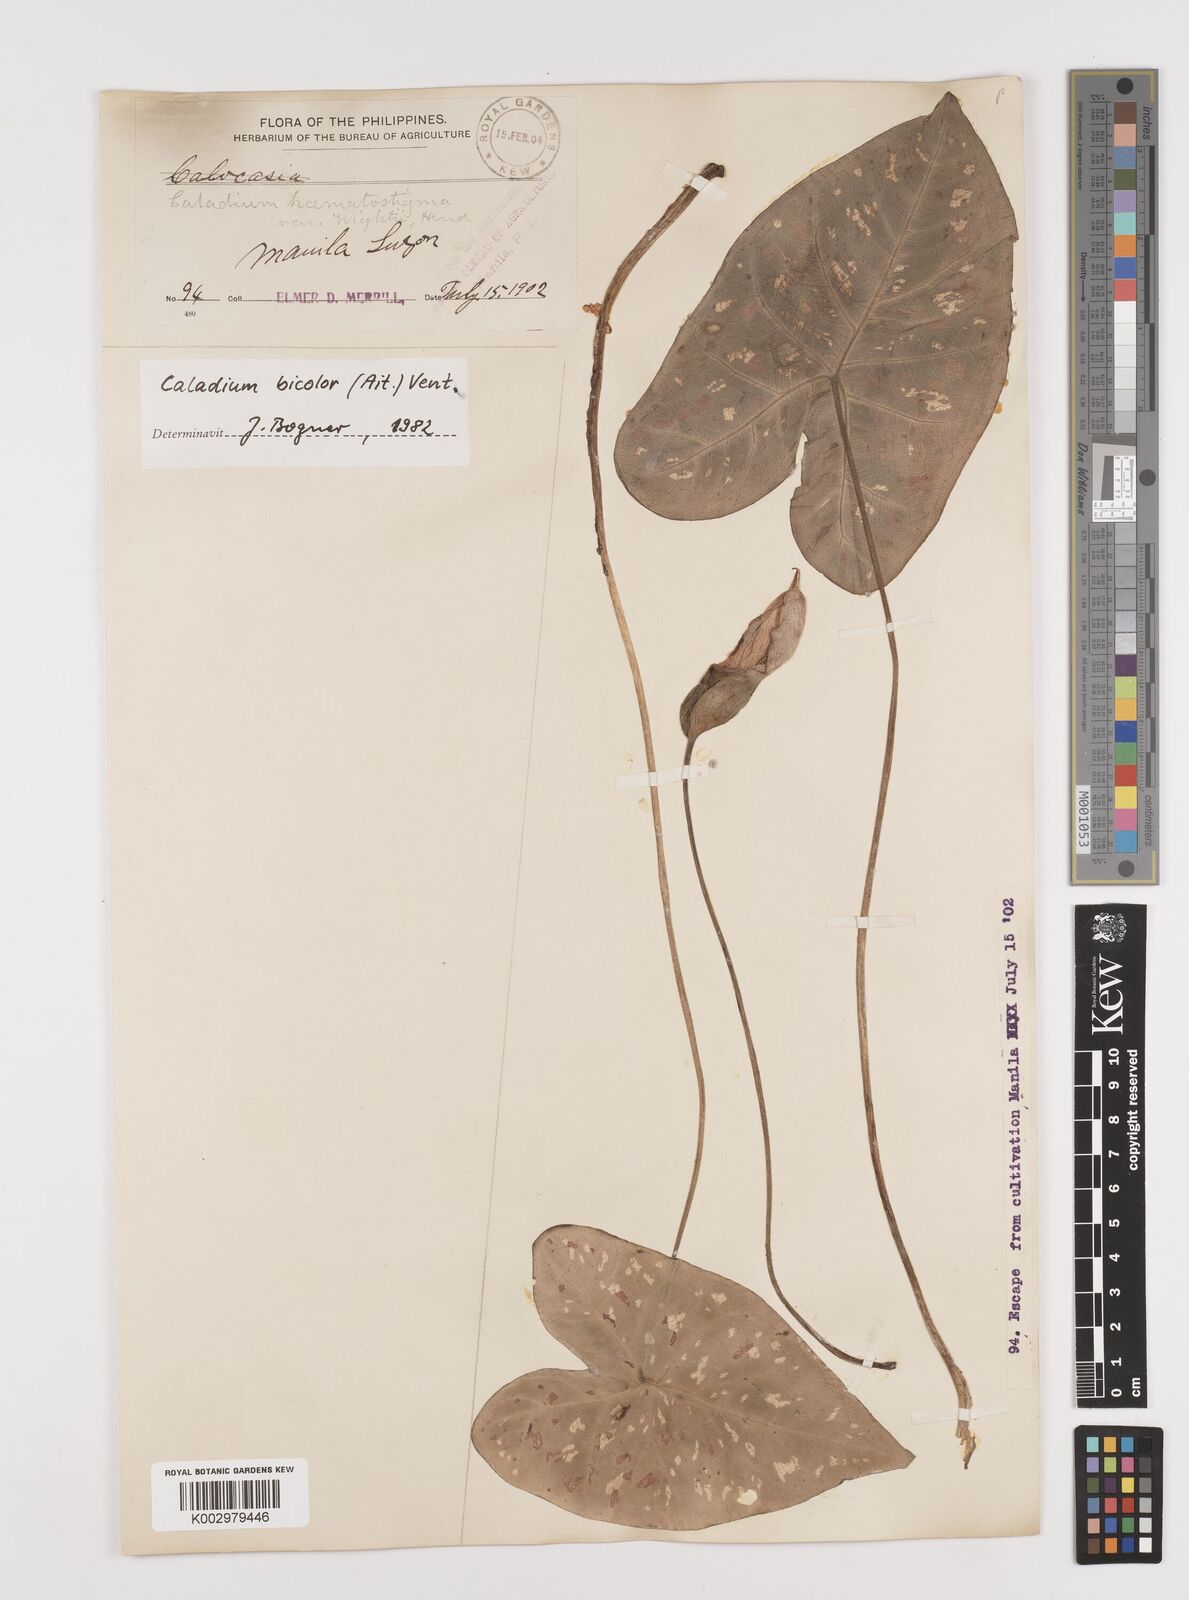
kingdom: Plantae
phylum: Tracheophyta
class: Liliopsida
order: Alismatales
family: Araceae
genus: Caladium
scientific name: Caladium bicolor
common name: Artist's pallet
